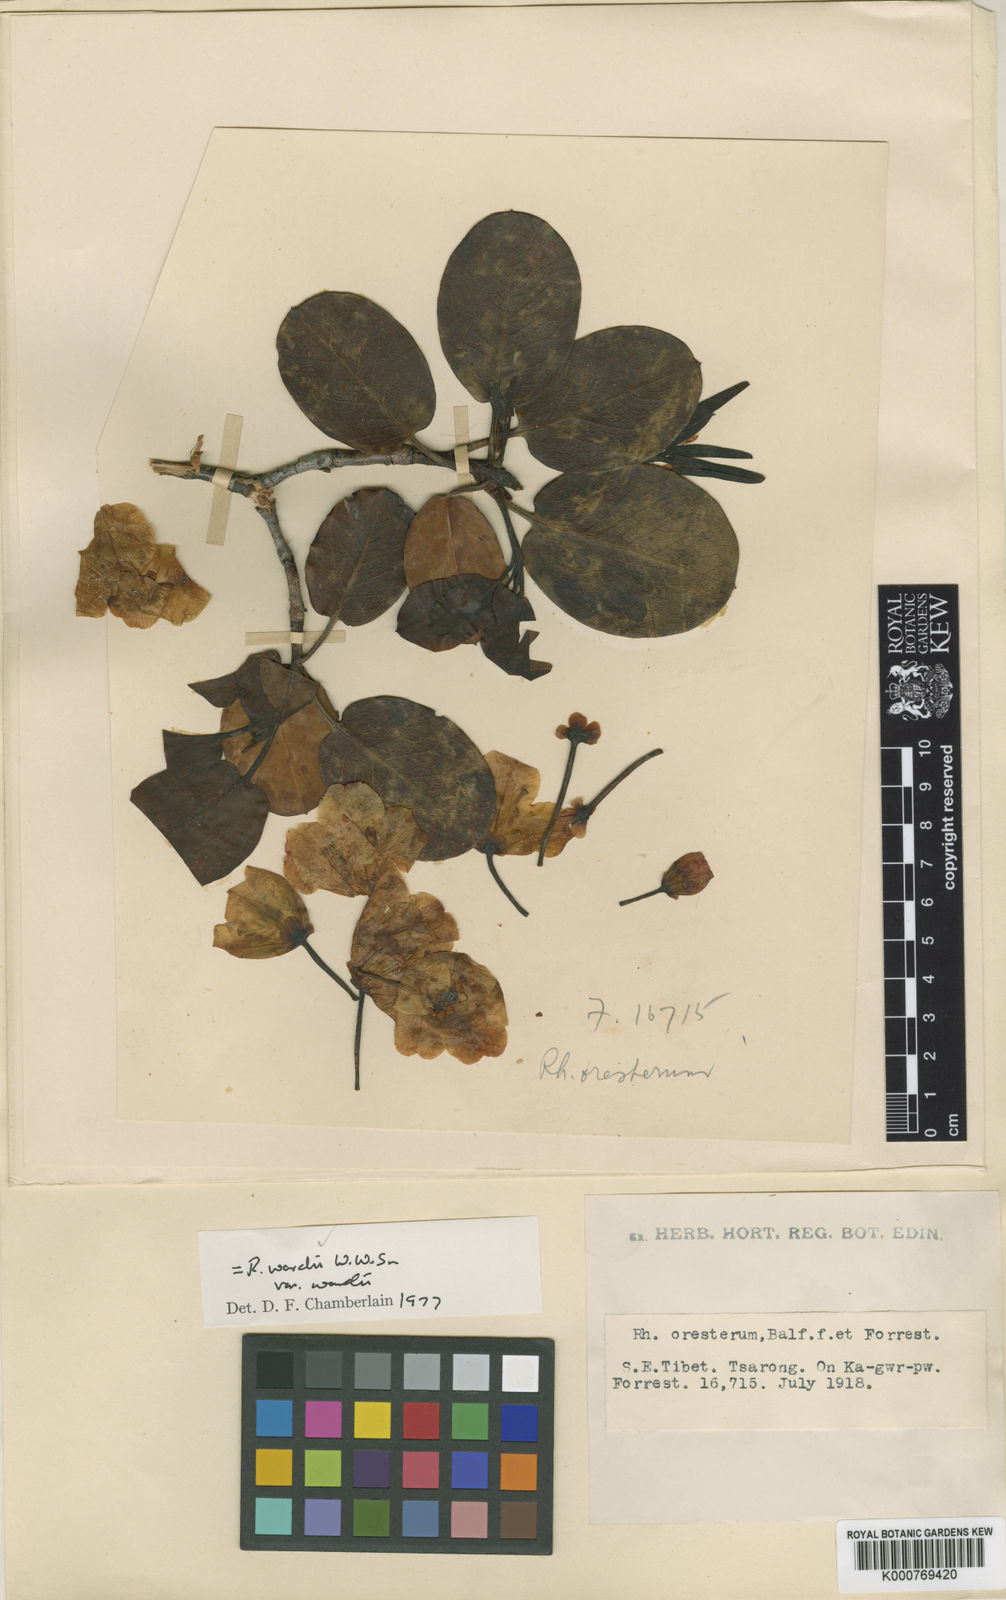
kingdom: Plantae
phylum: Tracheophyta
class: Magnoliopsida
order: Ericales
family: Ericaceae
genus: Rhododendron
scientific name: Rhododendron wardii
